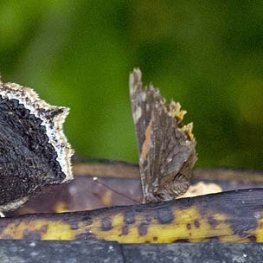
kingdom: Animalia
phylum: Arthropoda
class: Insecta
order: Lepidoptera
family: Nymphalidae
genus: Vanessa
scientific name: Vanessa atalanta
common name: Red Admiral
